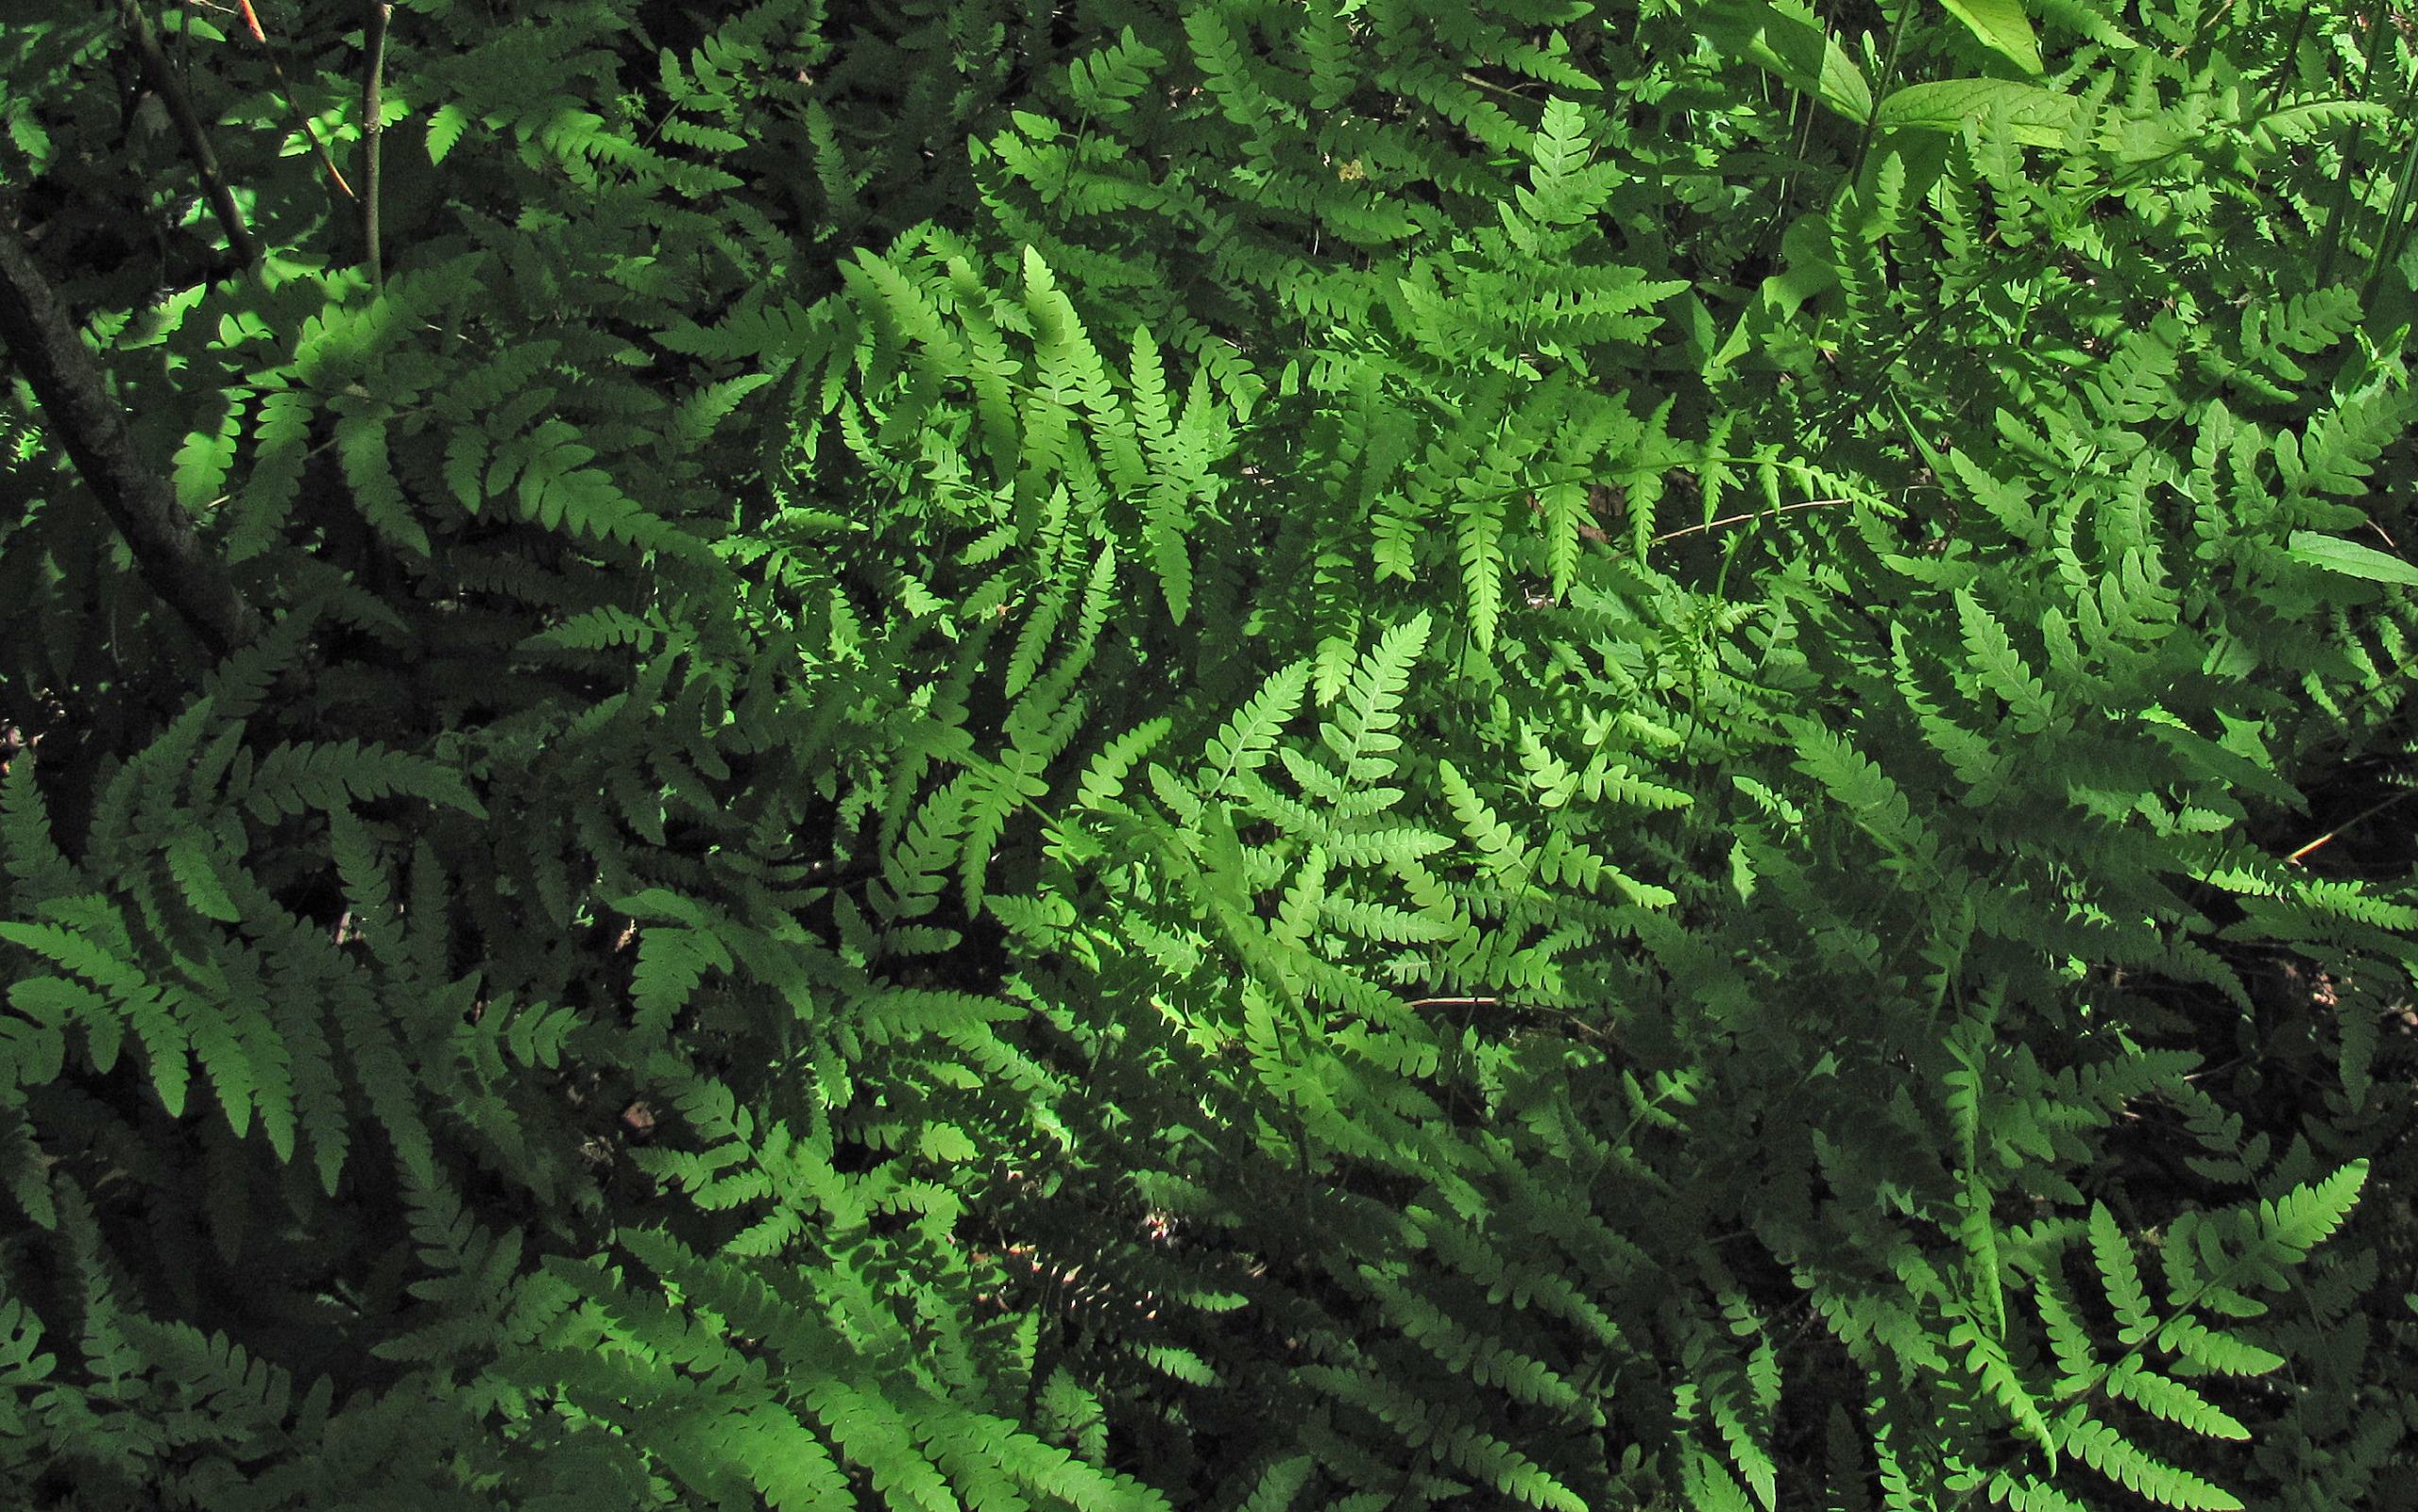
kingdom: Plantae
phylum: Tracheophyta
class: Polypodiopsida
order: Polypodiales
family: Thelypteridaceae
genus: Thelypteris
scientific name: Thelypteris palustris
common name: Kærmangeløv
